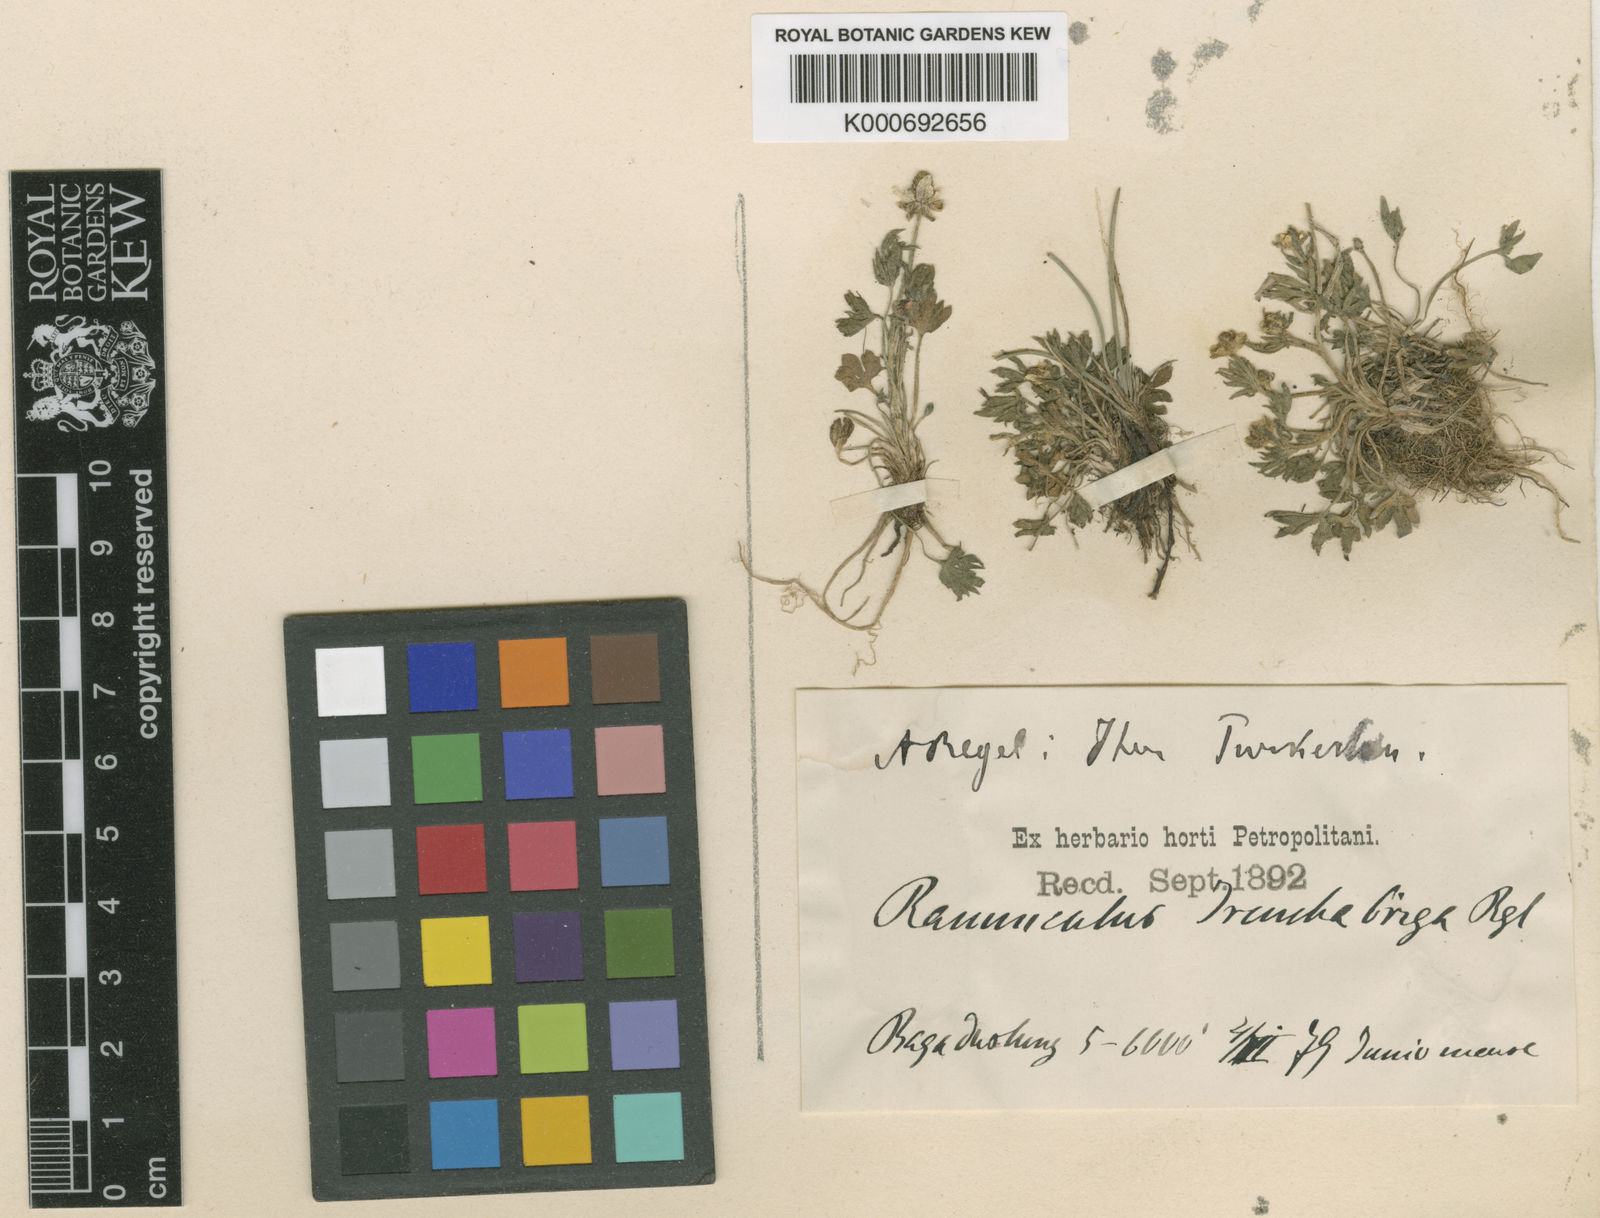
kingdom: Plantae
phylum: Tracheophyta
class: Magnoliopsida
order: Ranunculales
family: Ranunculaceae
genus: Ranunculus
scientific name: Ranunculus
